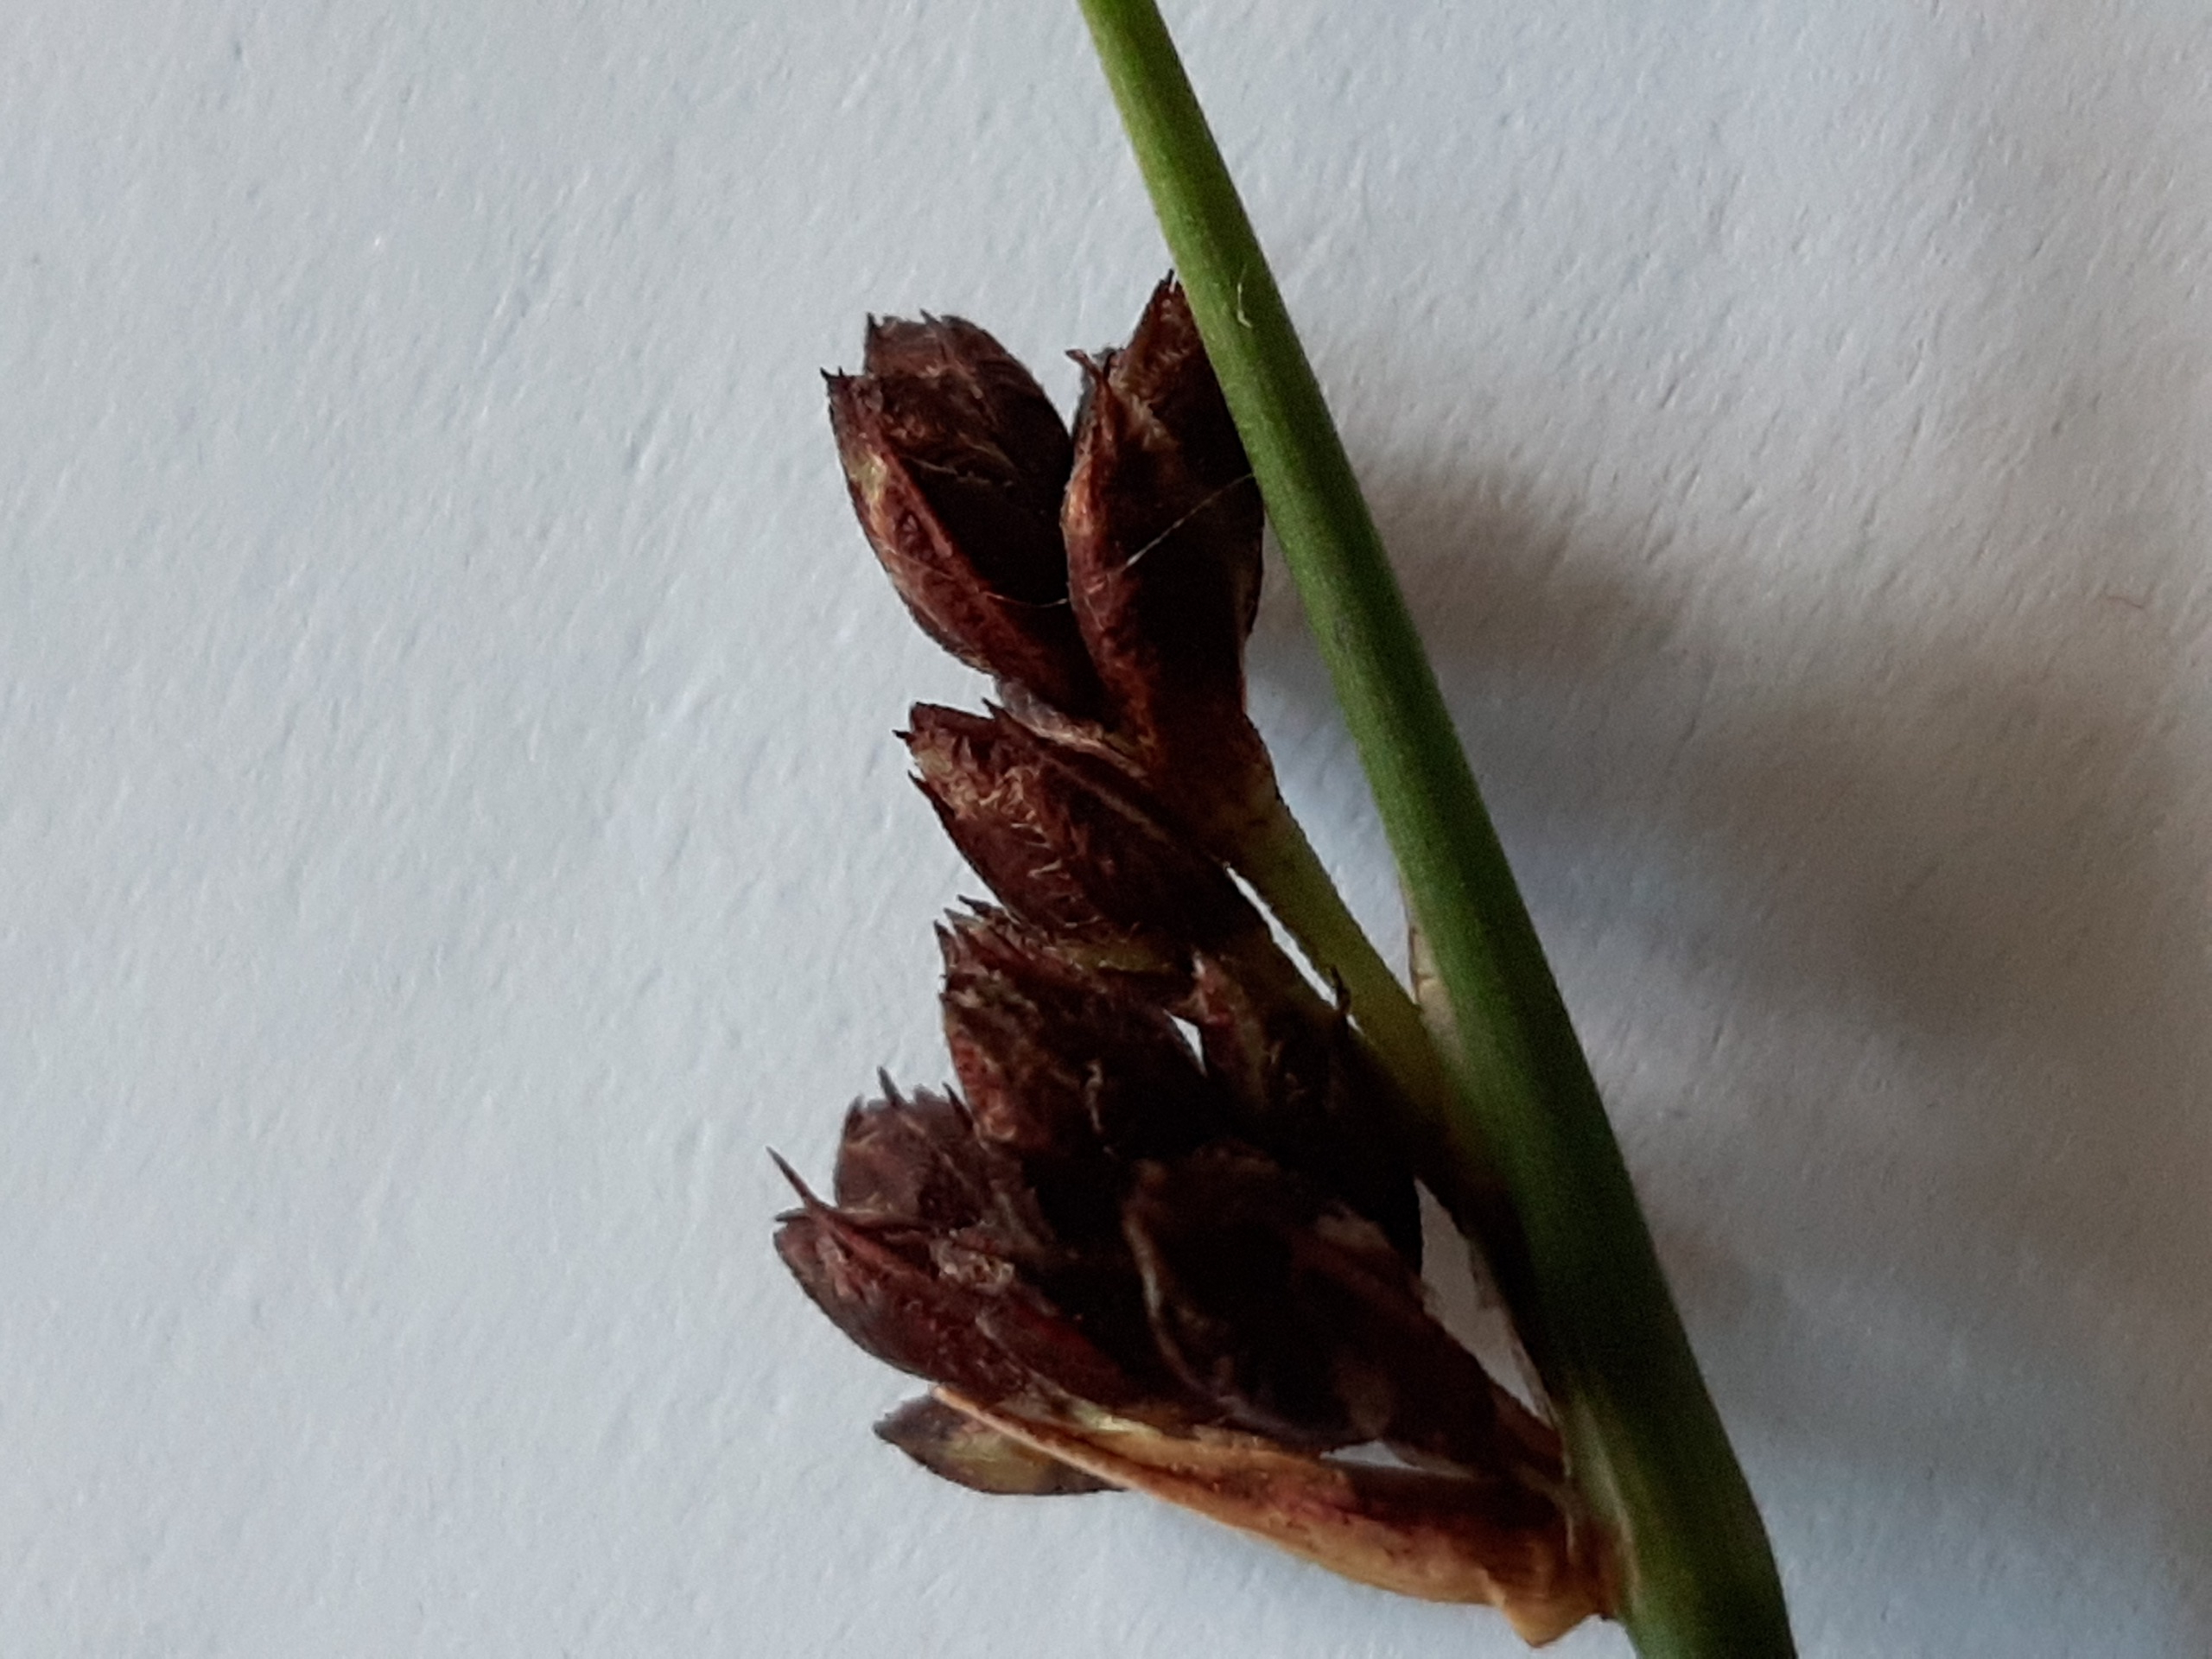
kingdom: Plantae
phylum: Tracheophyta
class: Liliopsida
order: Poales
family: Cyperaceae
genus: Schoenoplectus
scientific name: Schoenoplectus tabernaemontani
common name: Blågrøn kogleaks
